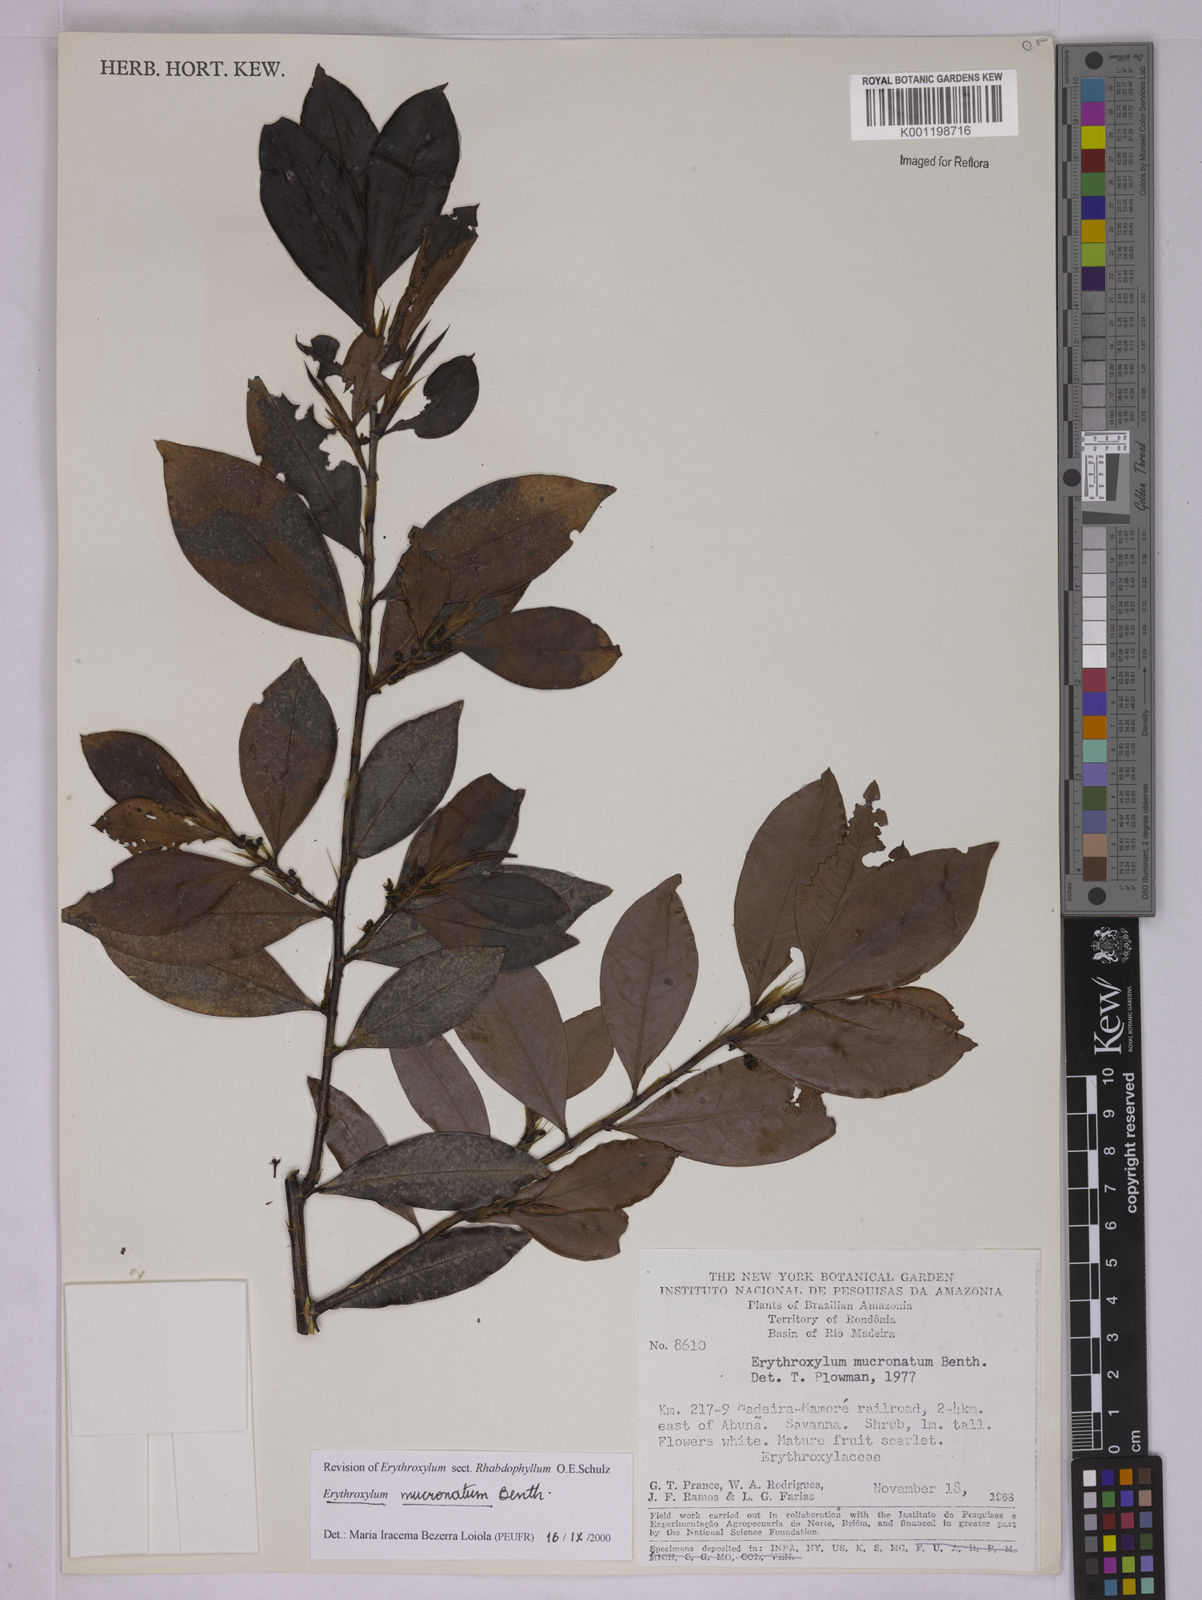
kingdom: Plantae
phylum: Tracheophyta
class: Magnoliopsida
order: Malpighiales
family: Erythroxylaceae
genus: Erythroxylum
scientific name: Erythroxylum mucronatum
